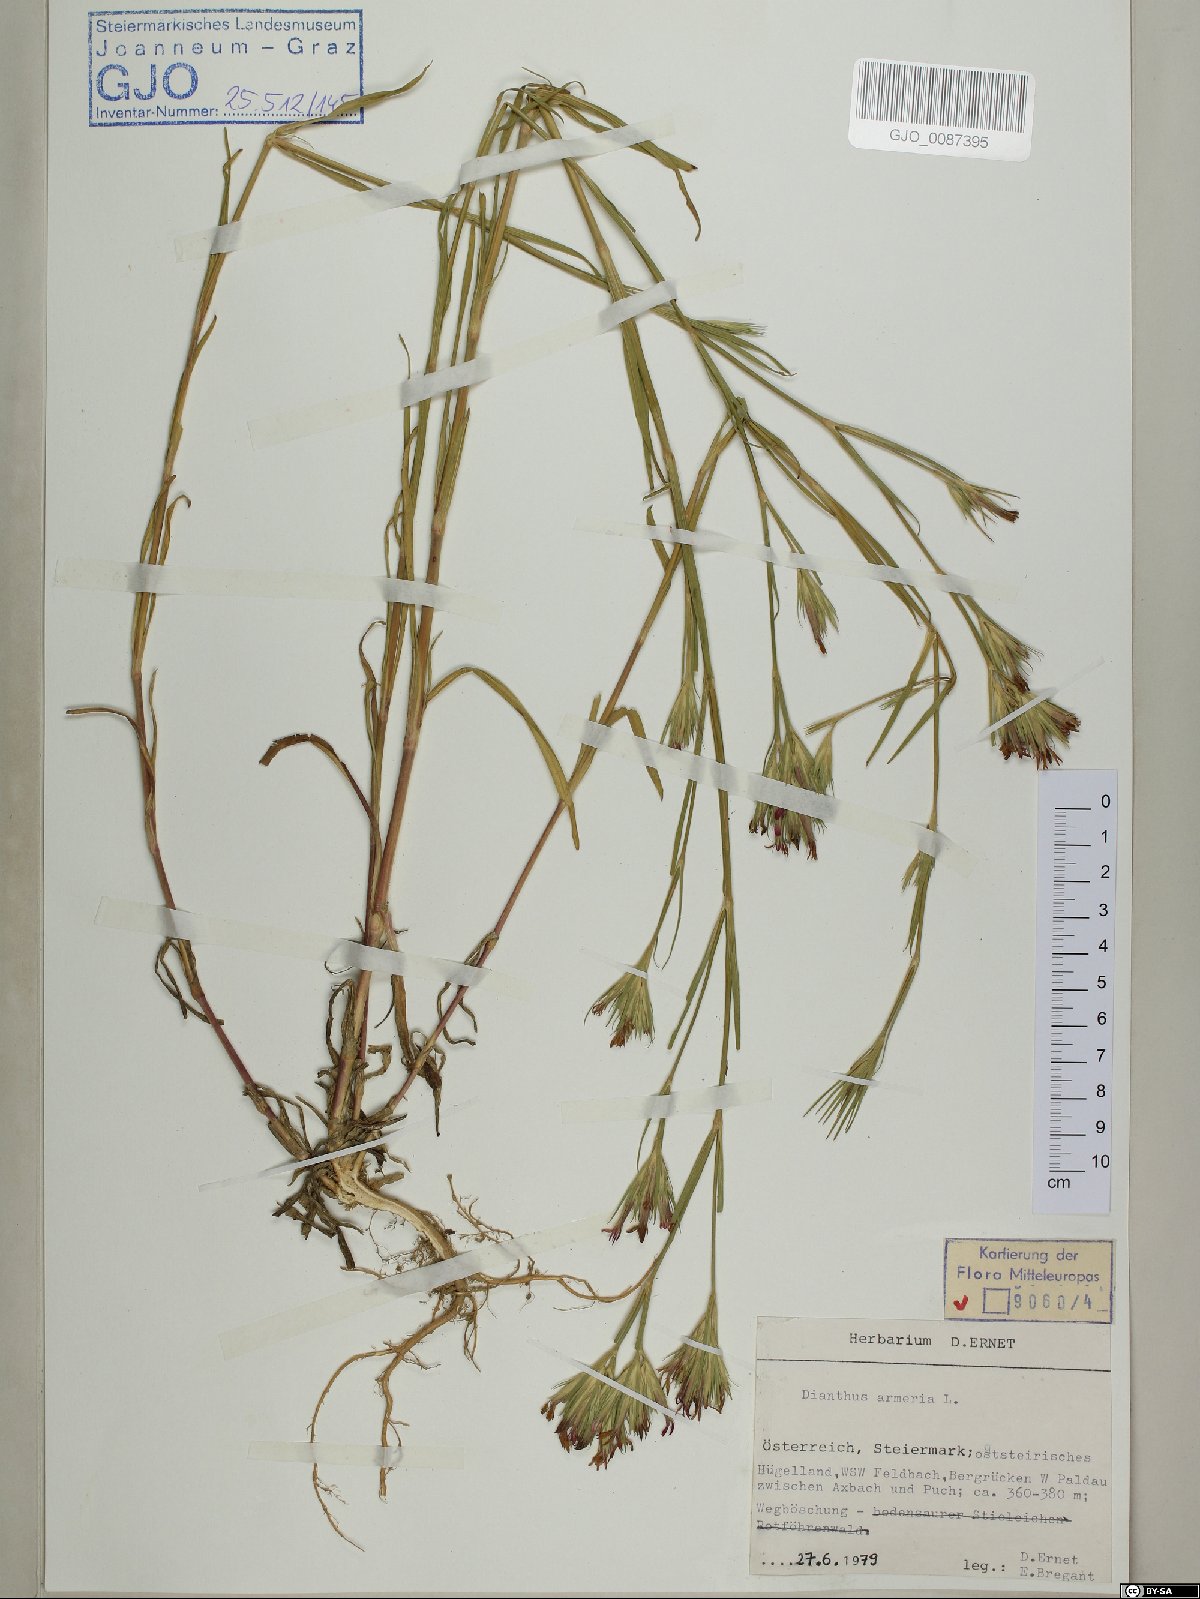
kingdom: Plantae
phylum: Tracheophyta
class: Magnoliopsida
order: Caryophyllales
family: Caryophyllaceae
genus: Dianthus
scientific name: Dianthus armeria
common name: Deptford pink
